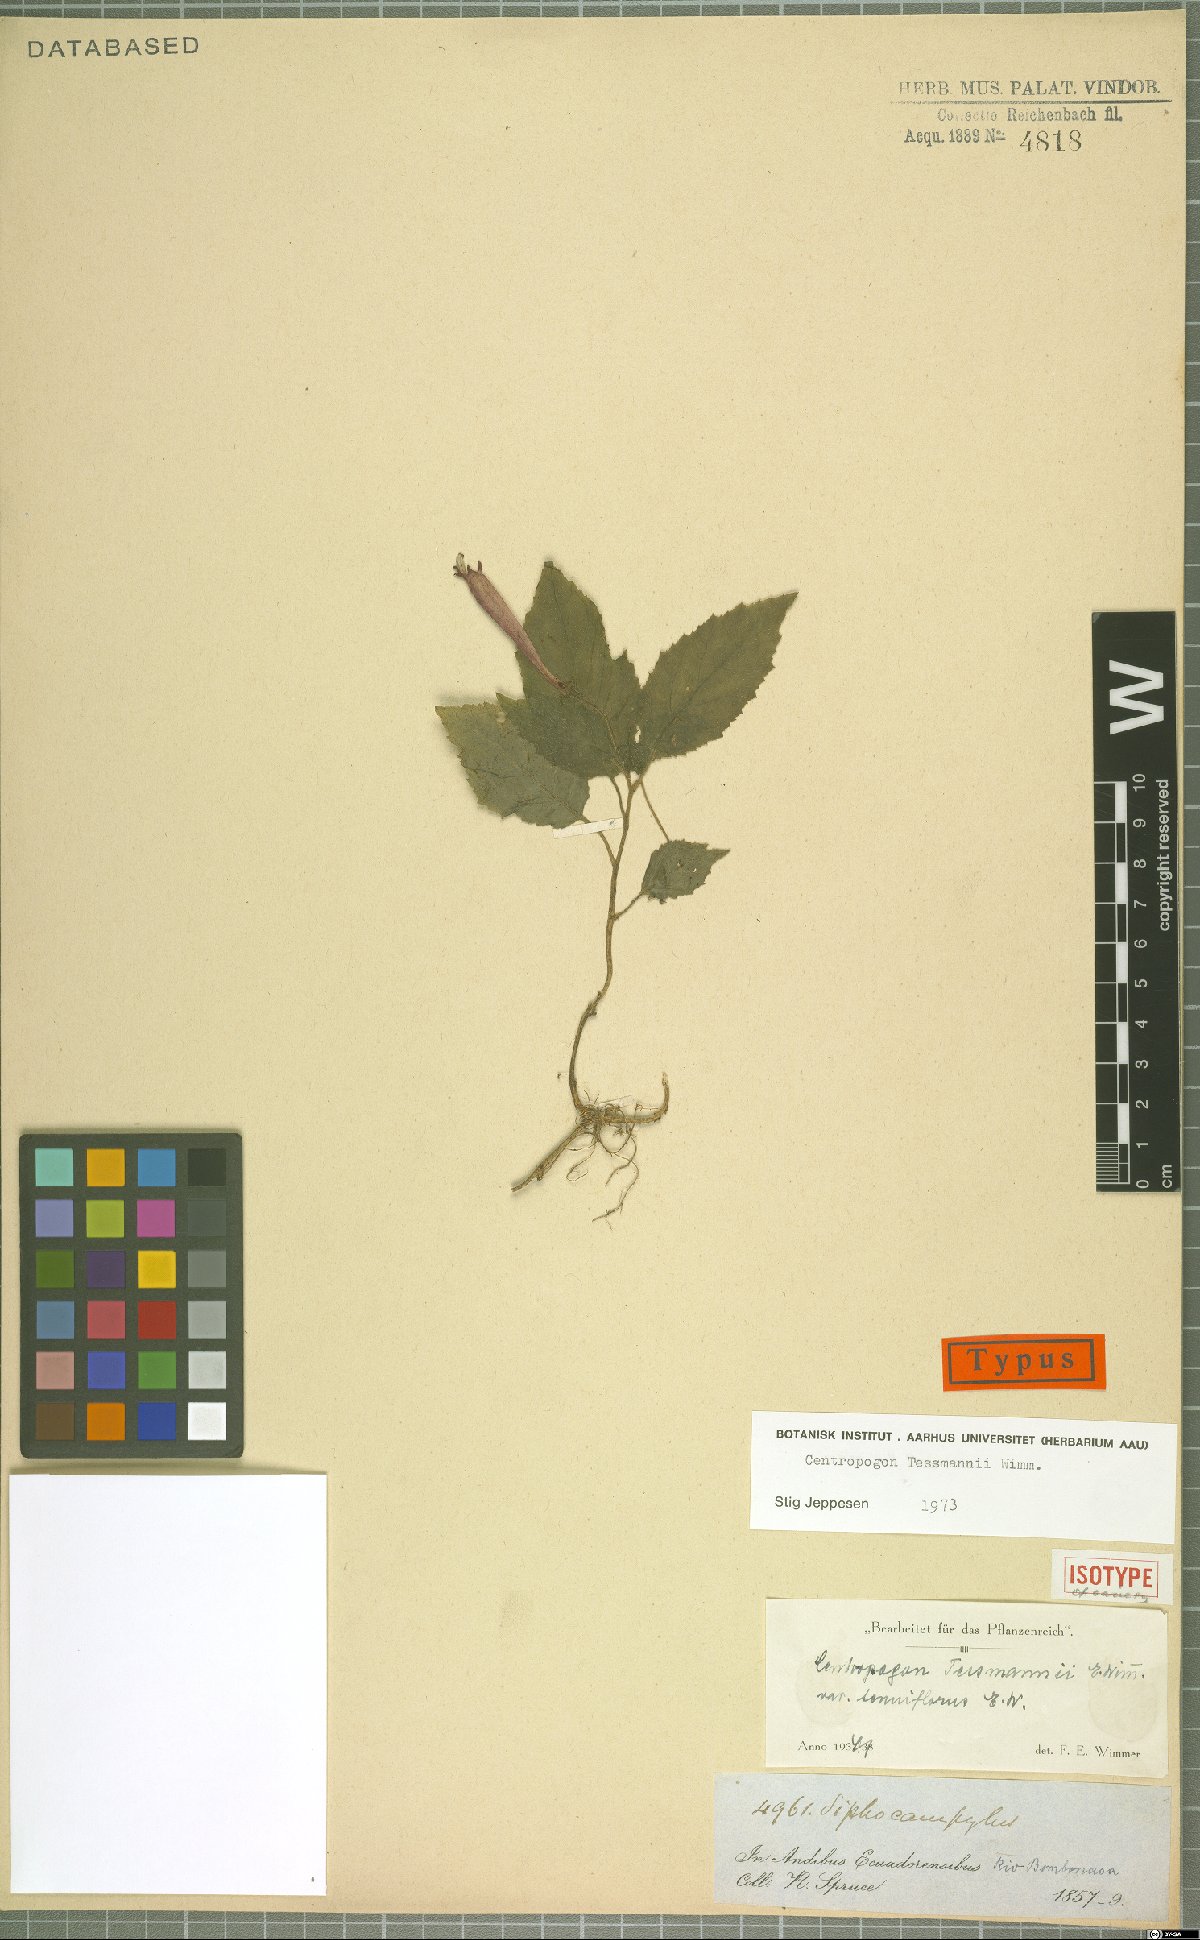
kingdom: Plantae
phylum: Tracheophyta
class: Magnoliopsida
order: Asterales
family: Campanulaceae
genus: Centropogon
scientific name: Centropogon tessmannii
